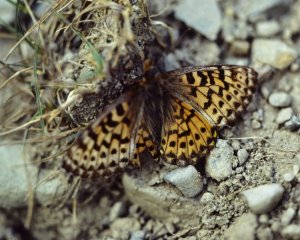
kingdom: Animalia
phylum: Arthropoda
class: Insecta
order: Lepidoptera
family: Nymphalidae
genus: Boloria
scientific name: Boloria chariclea
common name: Arctic Fritillary
